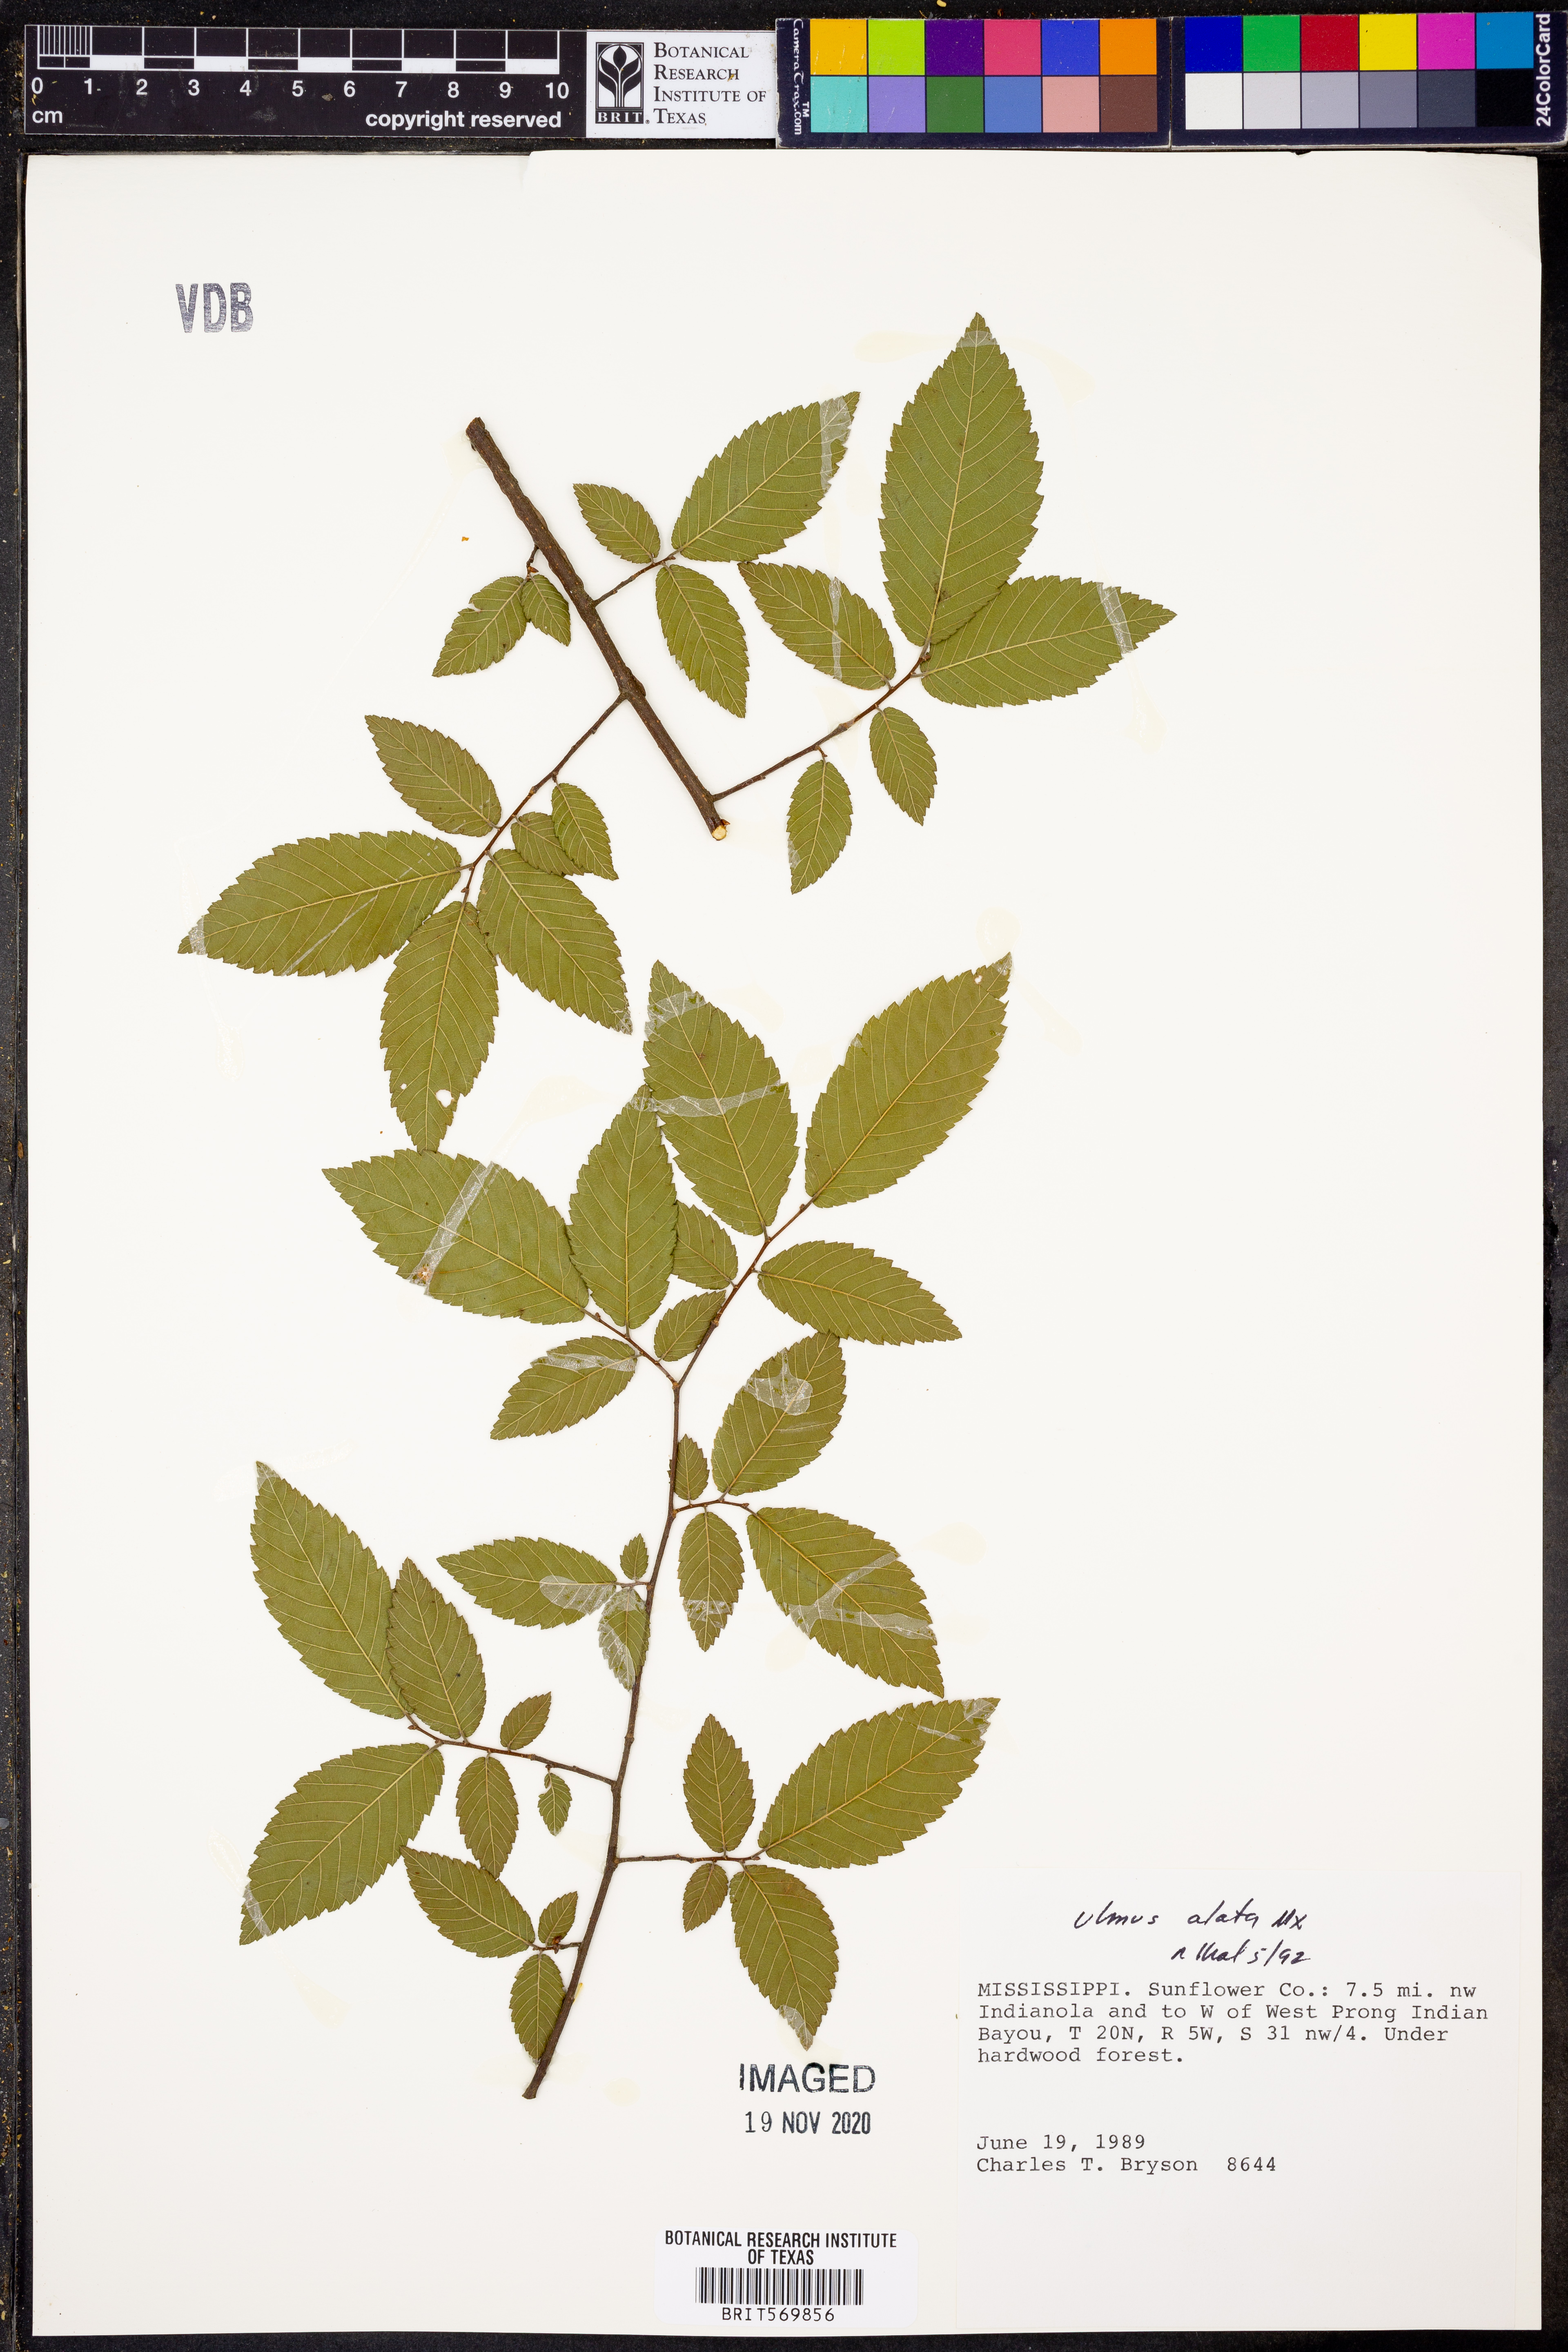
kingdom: Plantae
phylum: Tracheophyta
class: Magnoliopsida
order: Rosales
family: Ulmaceae
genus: Ulmus
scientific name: Ulmus alata
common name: Winged elm
